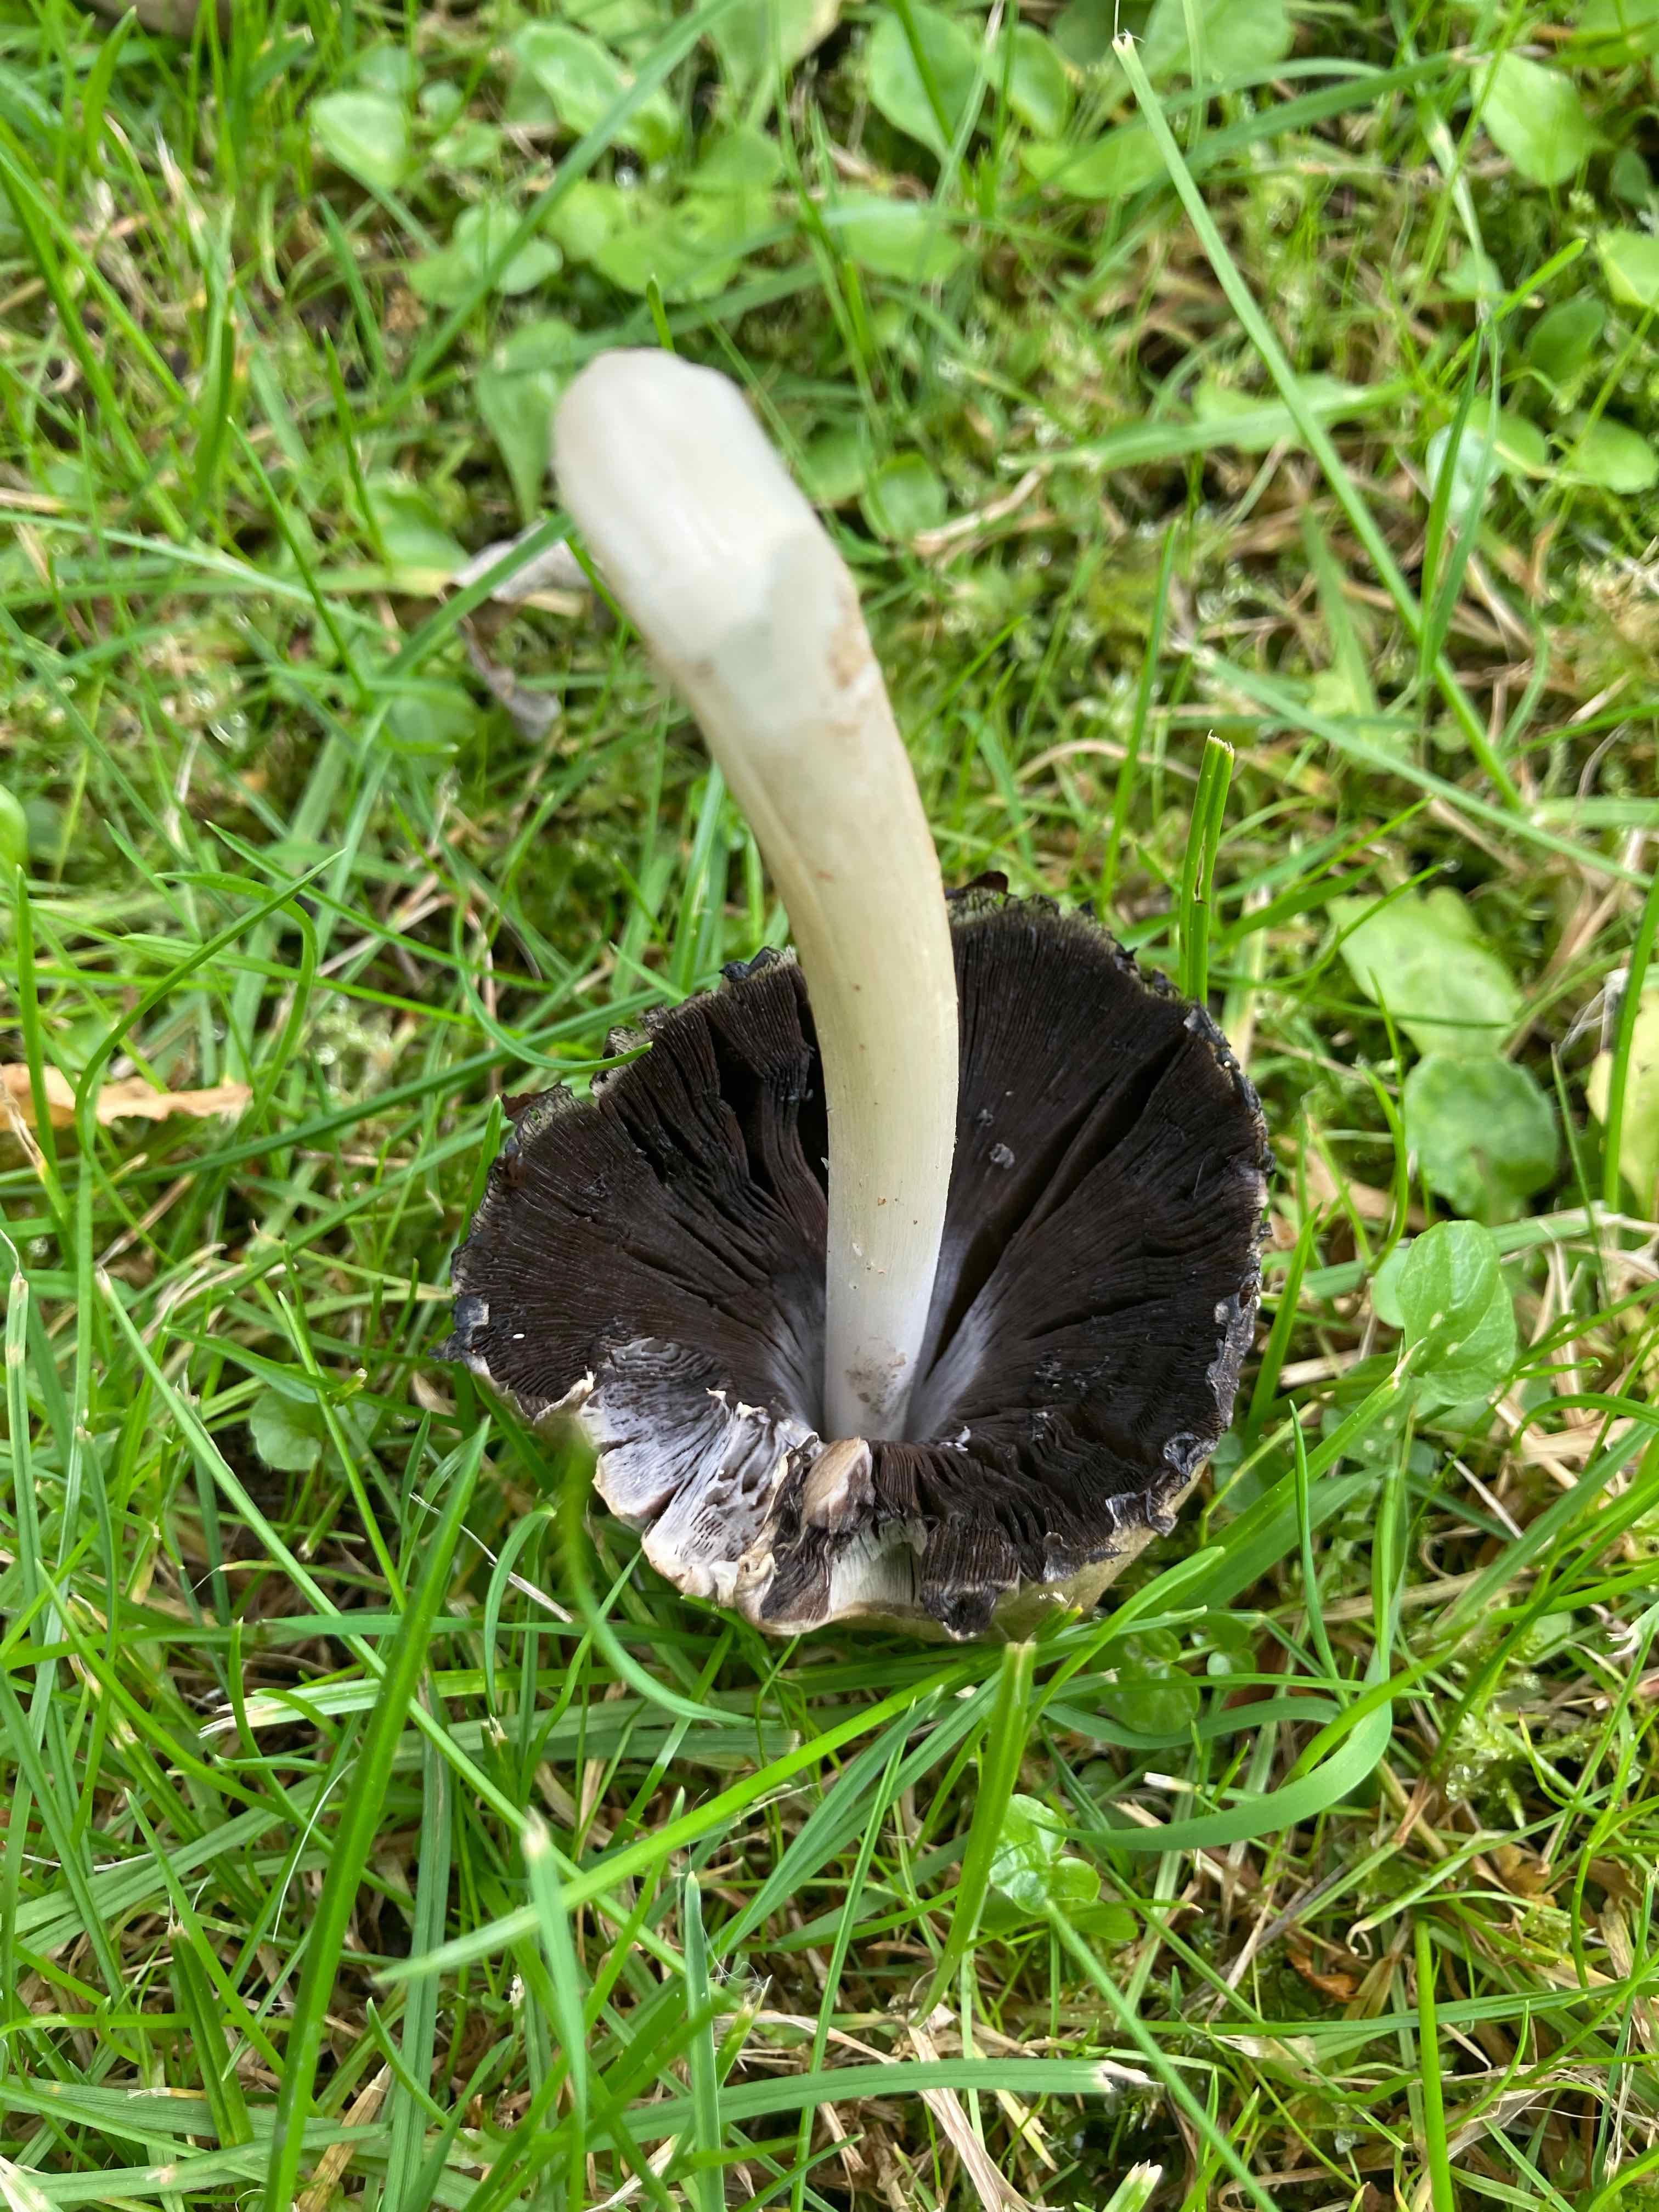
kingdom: Fungi
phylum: Basidiomycota
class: Agaricomycetes
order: Agaricales
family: Psathyrellaceae
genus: Coprinopsis
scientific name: Coprinopsis atramentaria
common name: almindelig blækhat
